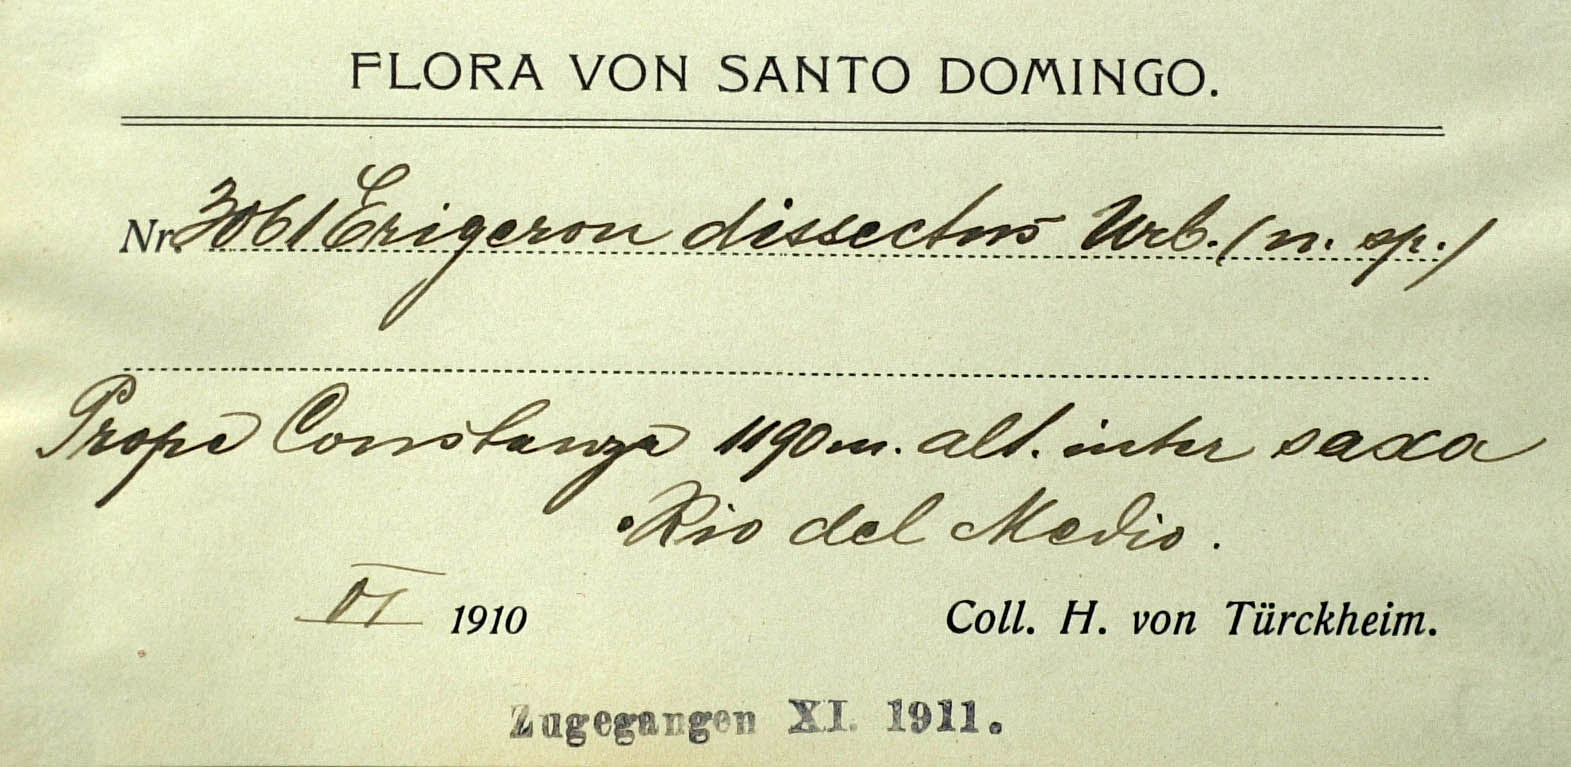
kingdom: Plantae
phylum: Tracheophyta
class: Magnoliopsida
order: Asterales
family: Asteraceae
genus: Erigeron
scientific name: Erigeron dissectus
